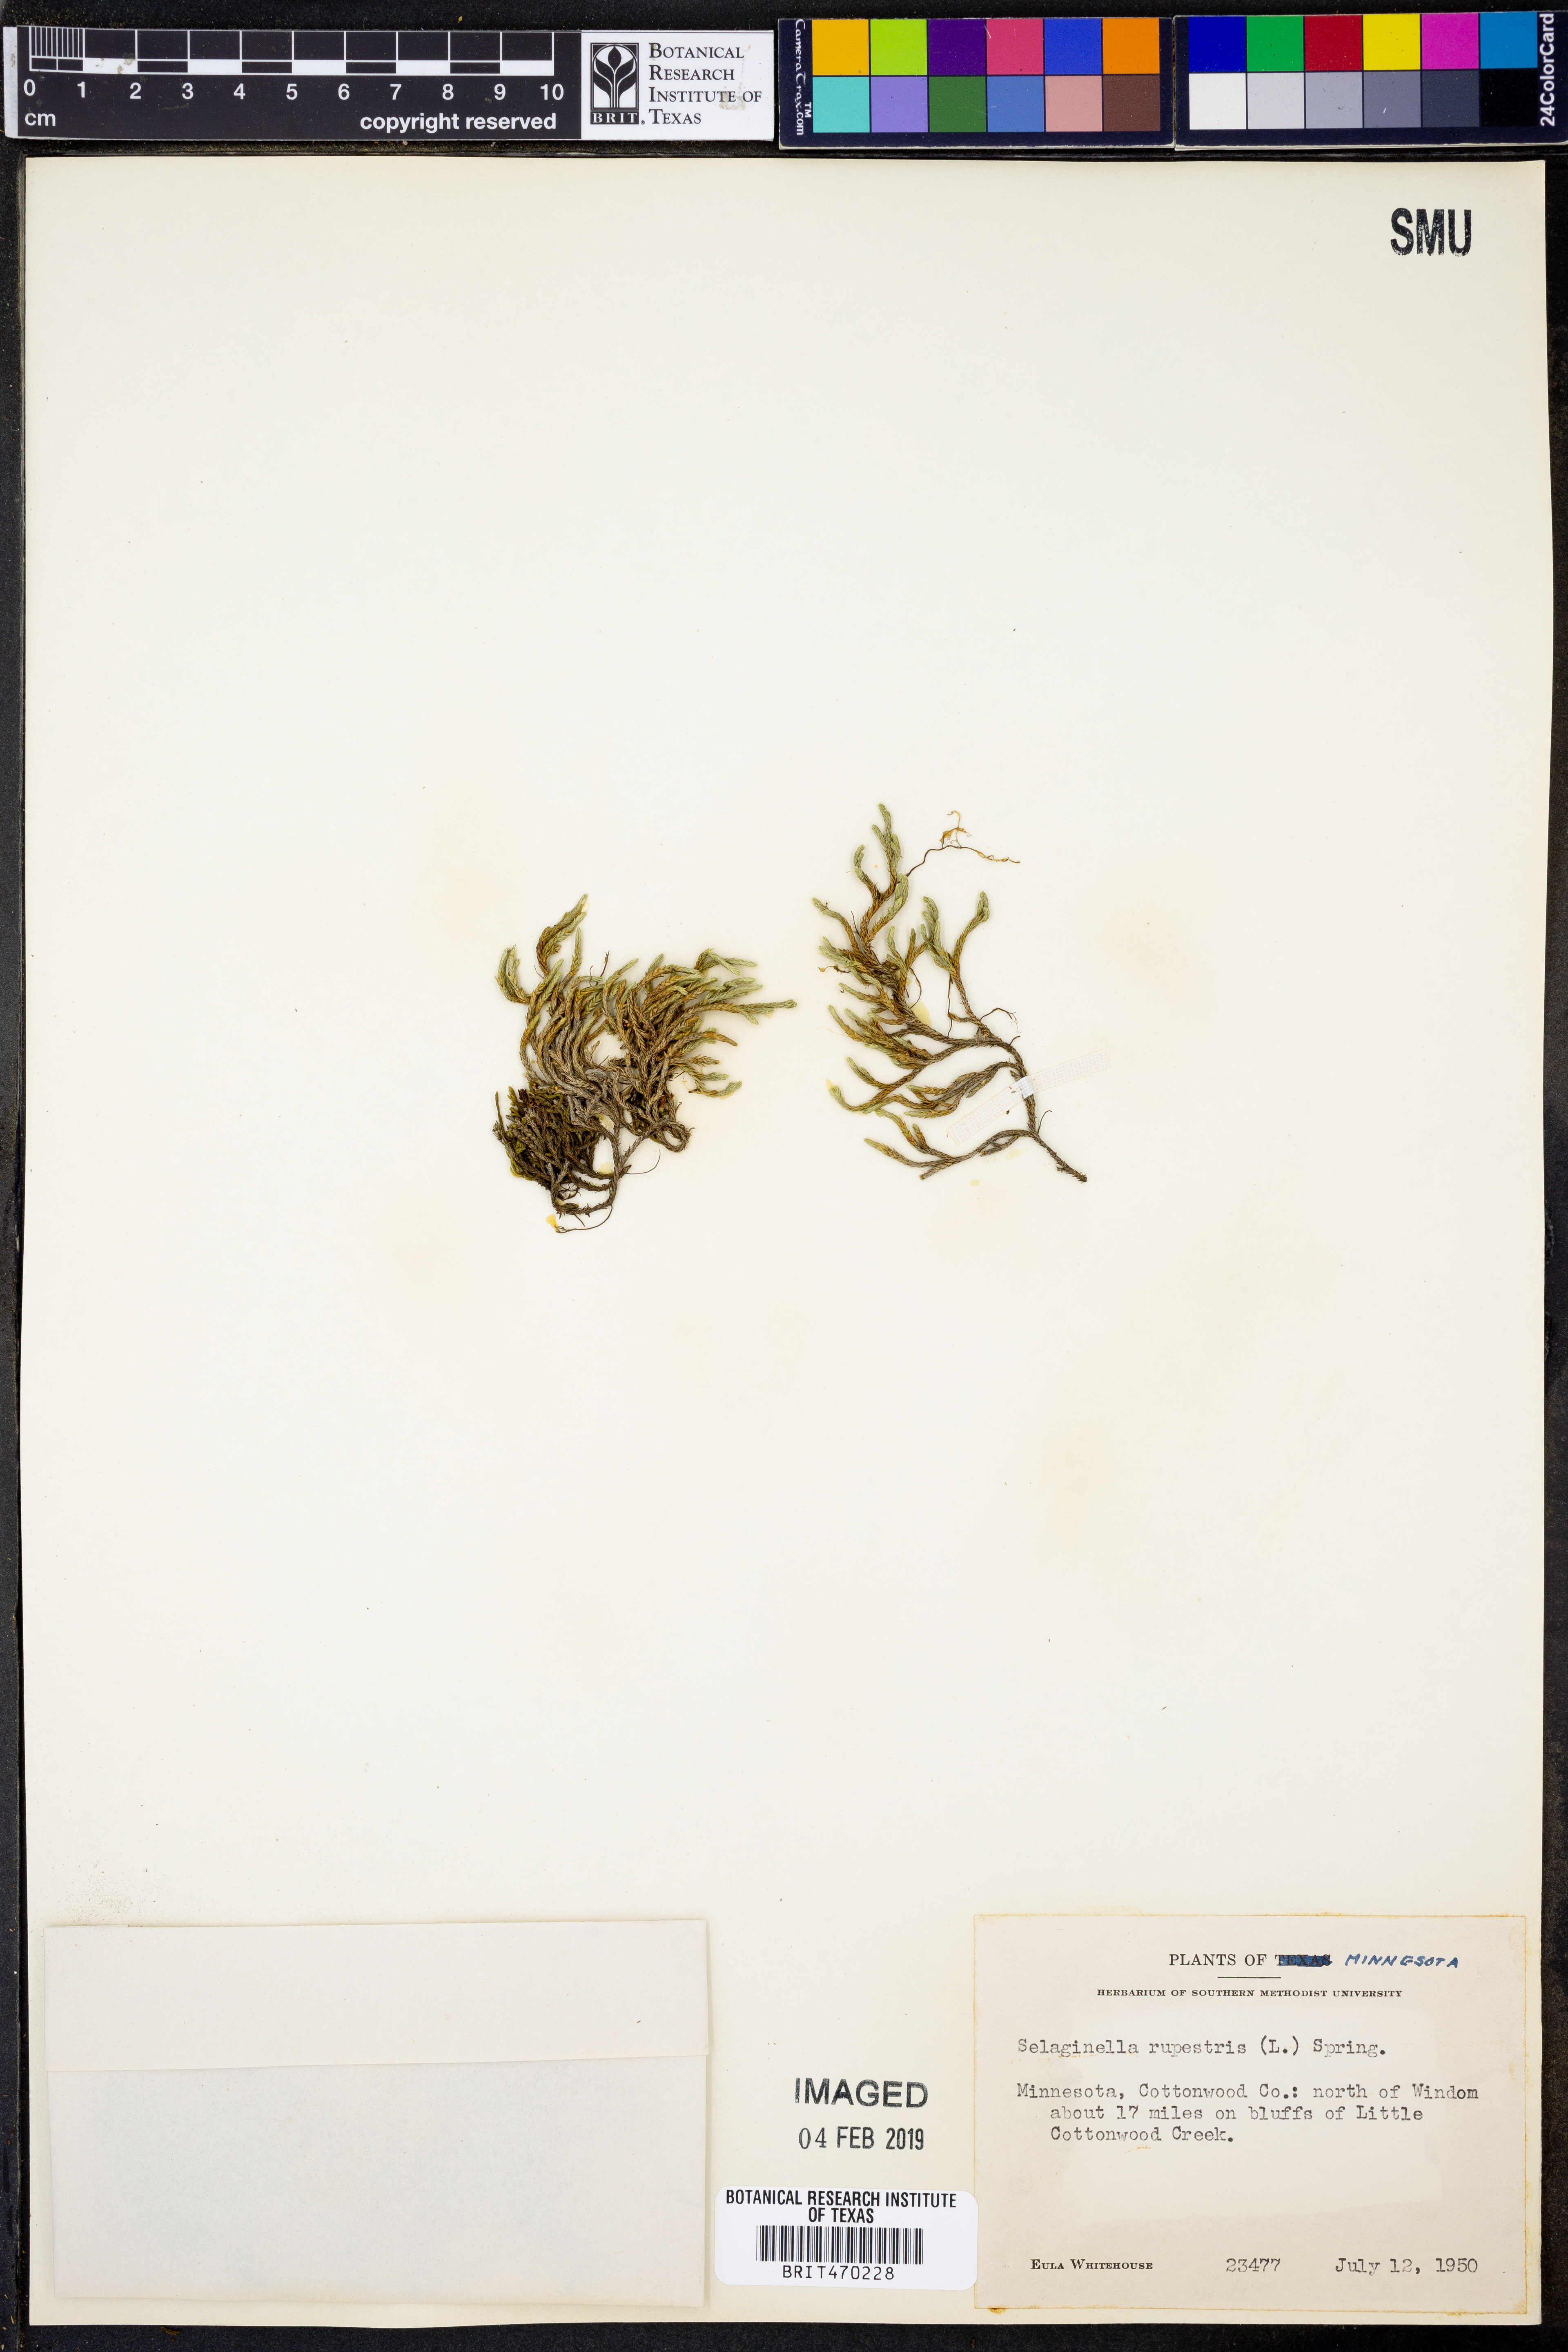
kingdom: Plantae
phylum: Tracheophyta
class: Lycopodiopsida
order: Selaginellales
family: Selaginellaceae
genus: Selaginella
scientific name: Selaginella rupestris
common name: Dwarf spikemoss
